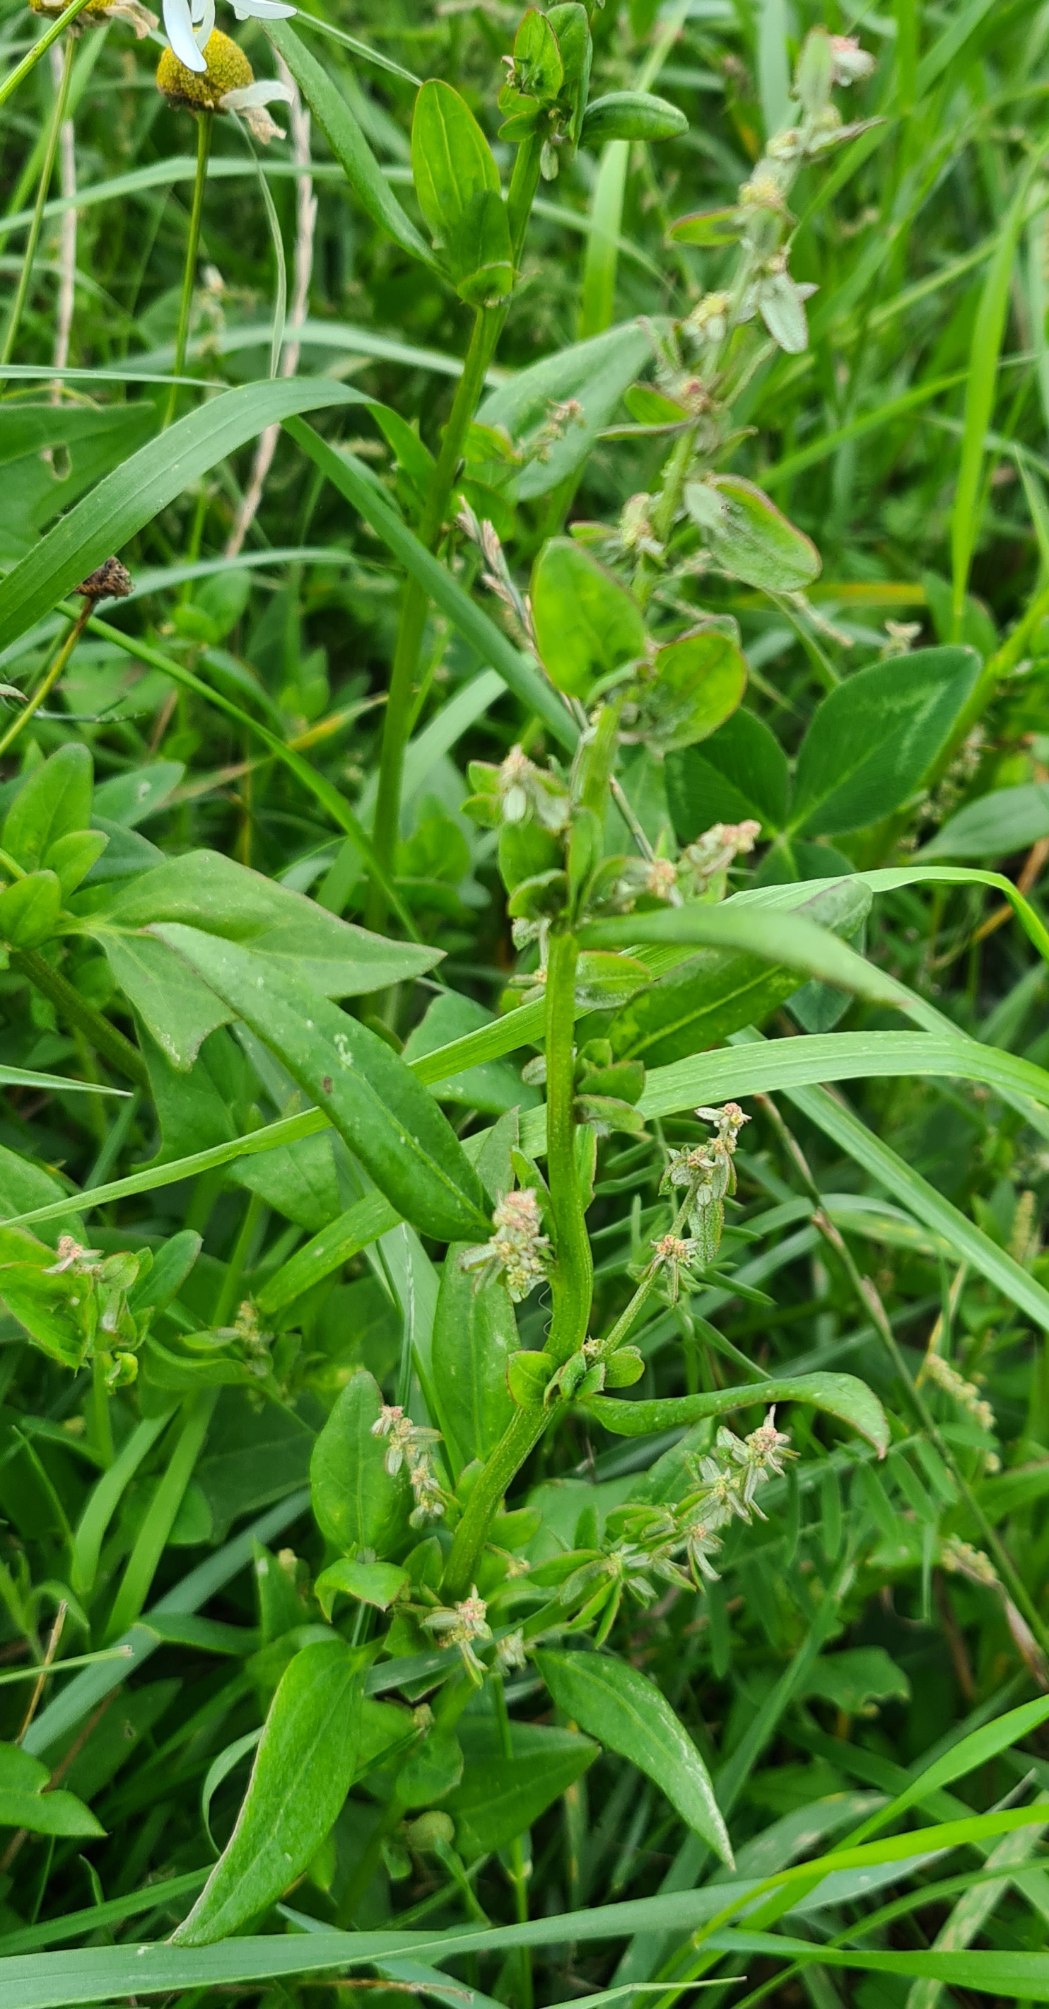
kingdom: Plantae
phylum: Tracheophyta
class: Magnoliopsida
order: Caryophyllales
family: Amaranthaceae
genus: Atriplex
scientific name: Atriplex patula
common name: Svine-mælde
